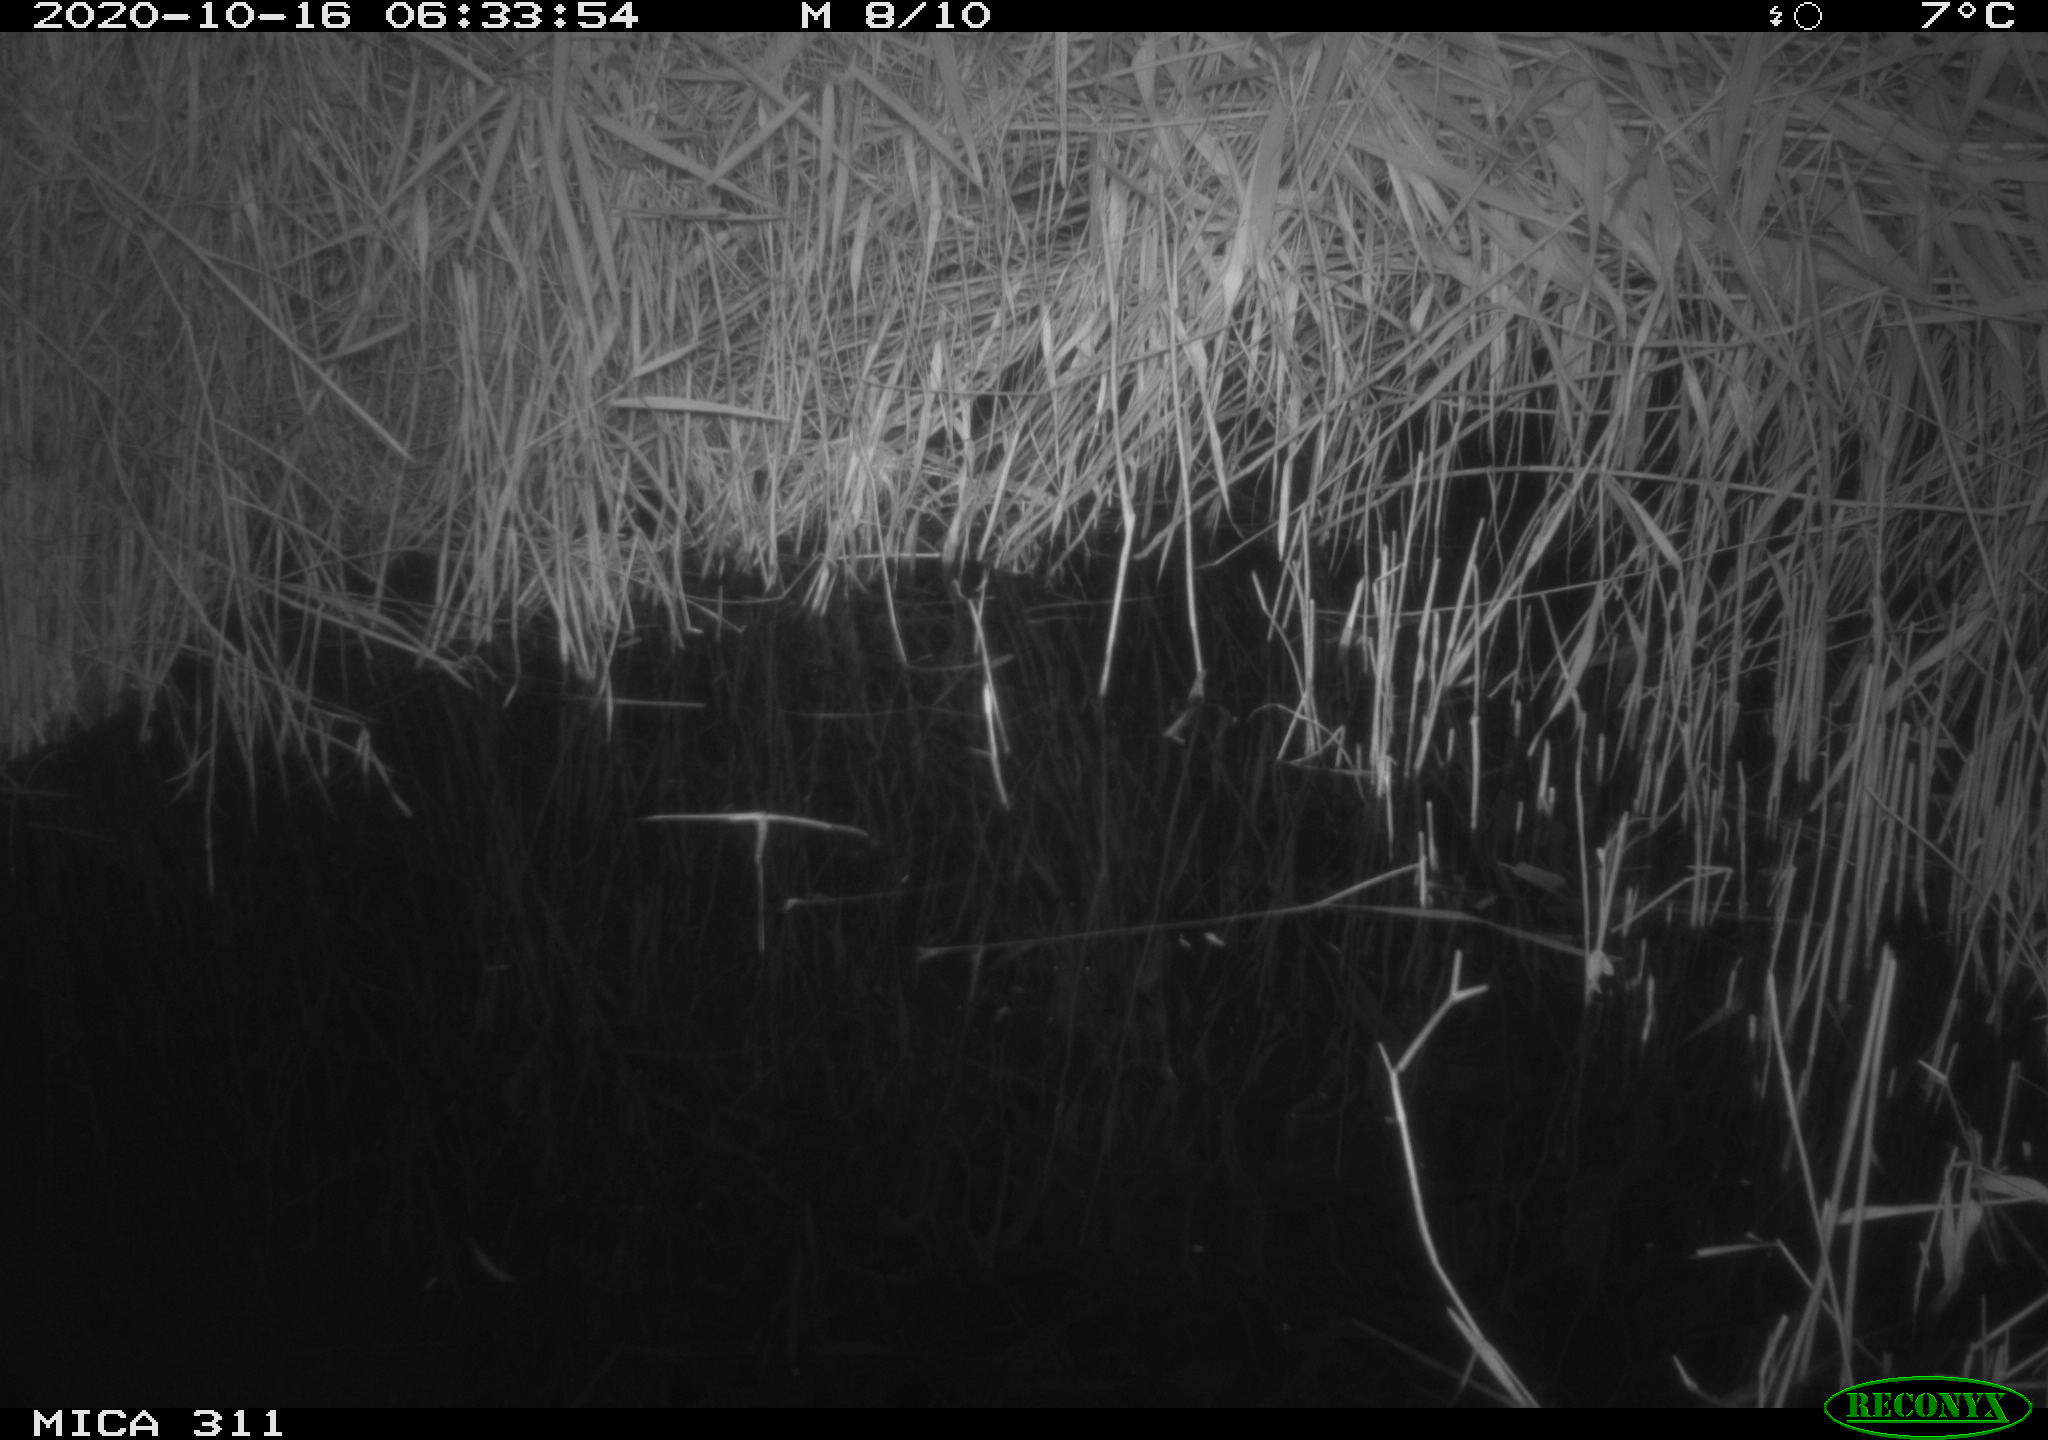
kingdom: Animalia
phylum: Chordata
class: Mammalia
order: Rodentia
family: Muridae
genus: Rattus
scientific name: Rattus norvegicus
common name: Brown rat
